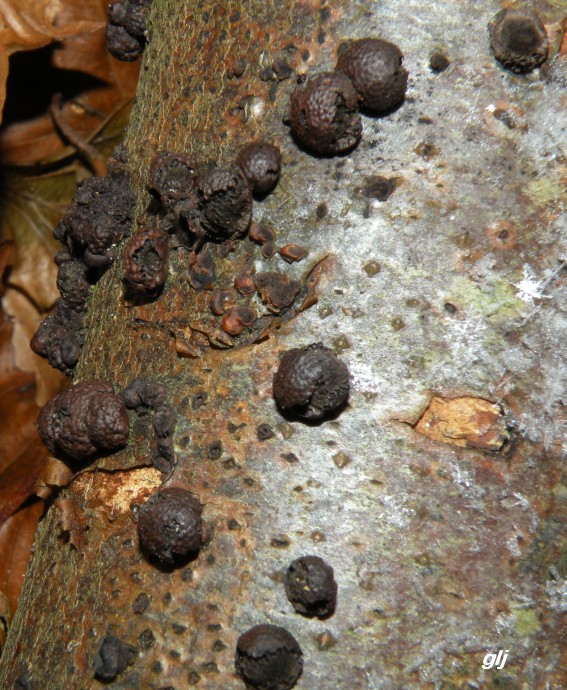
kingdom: Fungi
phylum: Ascomycota
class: Sordariomycetes
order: Xylariales
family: Hypoxylaceae
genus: Hypoxylon
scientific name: Hypoxylon fragiforme
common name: kuljordbær
